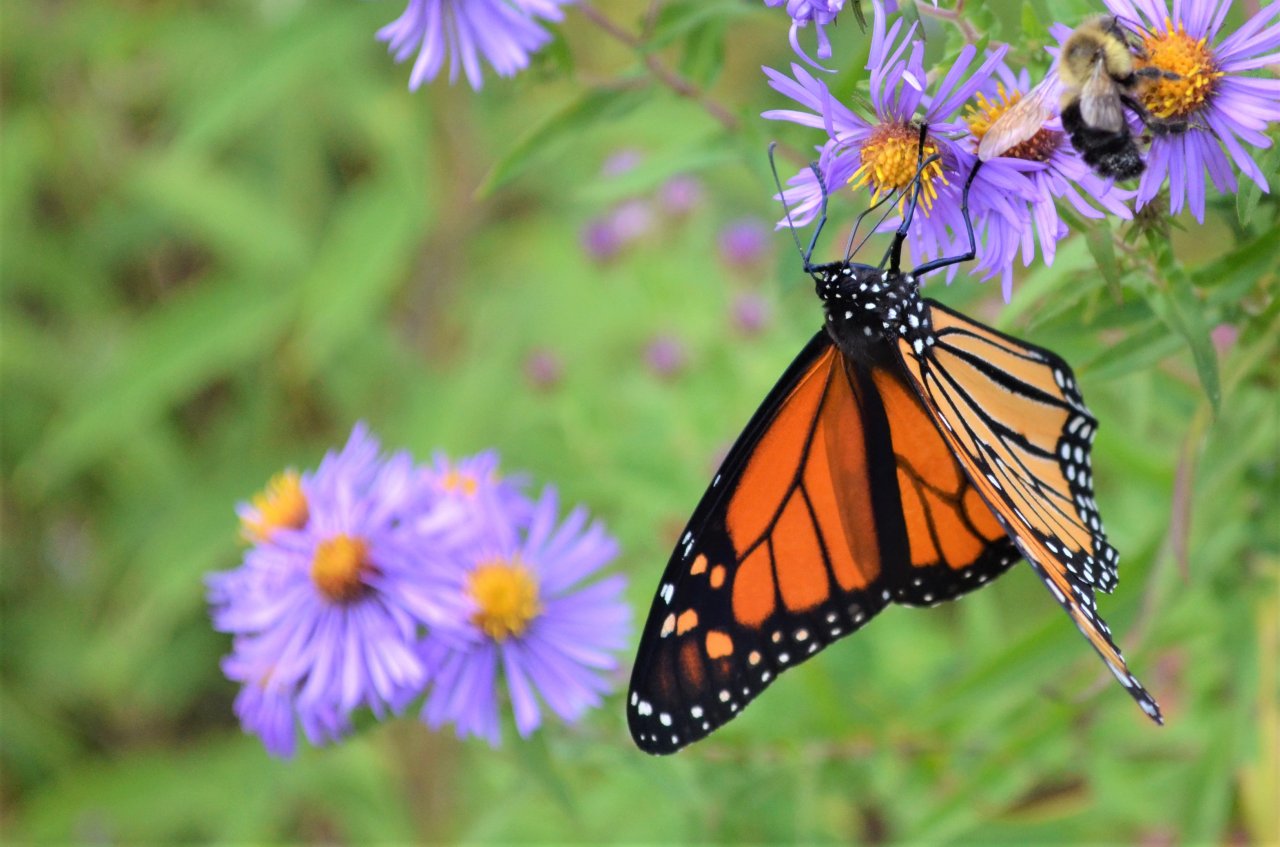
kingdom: Animalia
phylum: Arthropoda
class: Insecta
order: Lepidoptera
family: Nymphalidae
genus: Danaus
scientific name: Danaus plexippus
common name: Monarch
